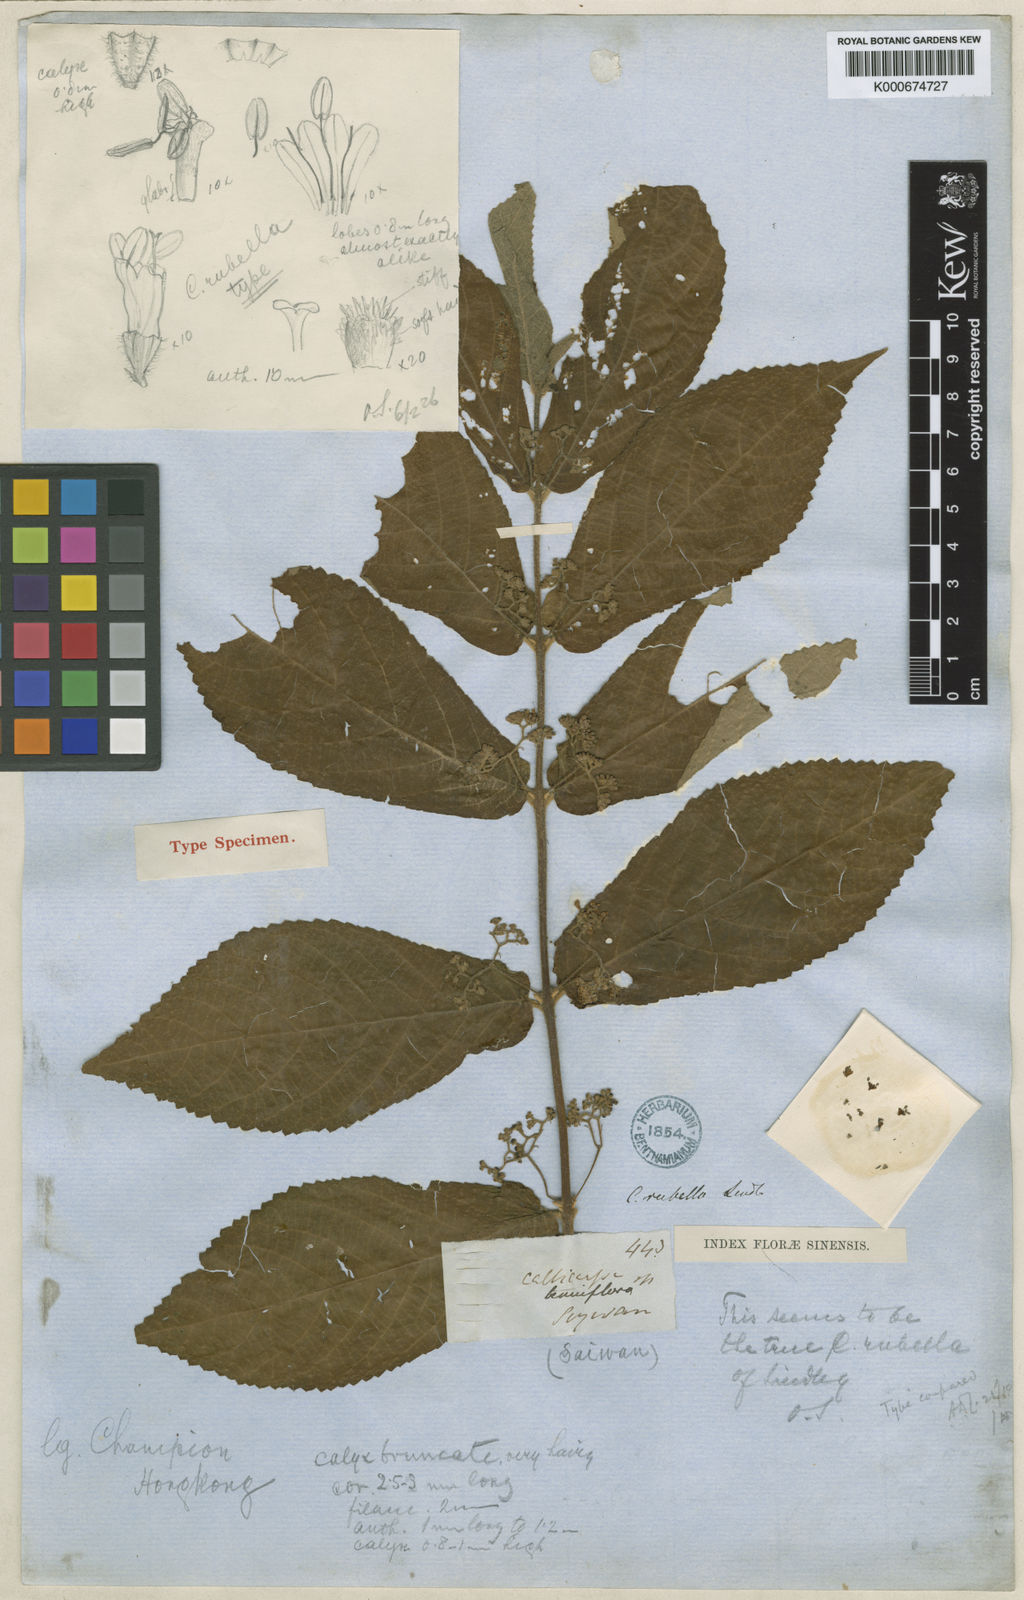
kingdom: Plantae
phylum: Tracheophyta
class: Magnoliopsida
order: Lamiales
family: Lamiaceae
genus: Callicarpa
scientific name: Callicarpa rubella
